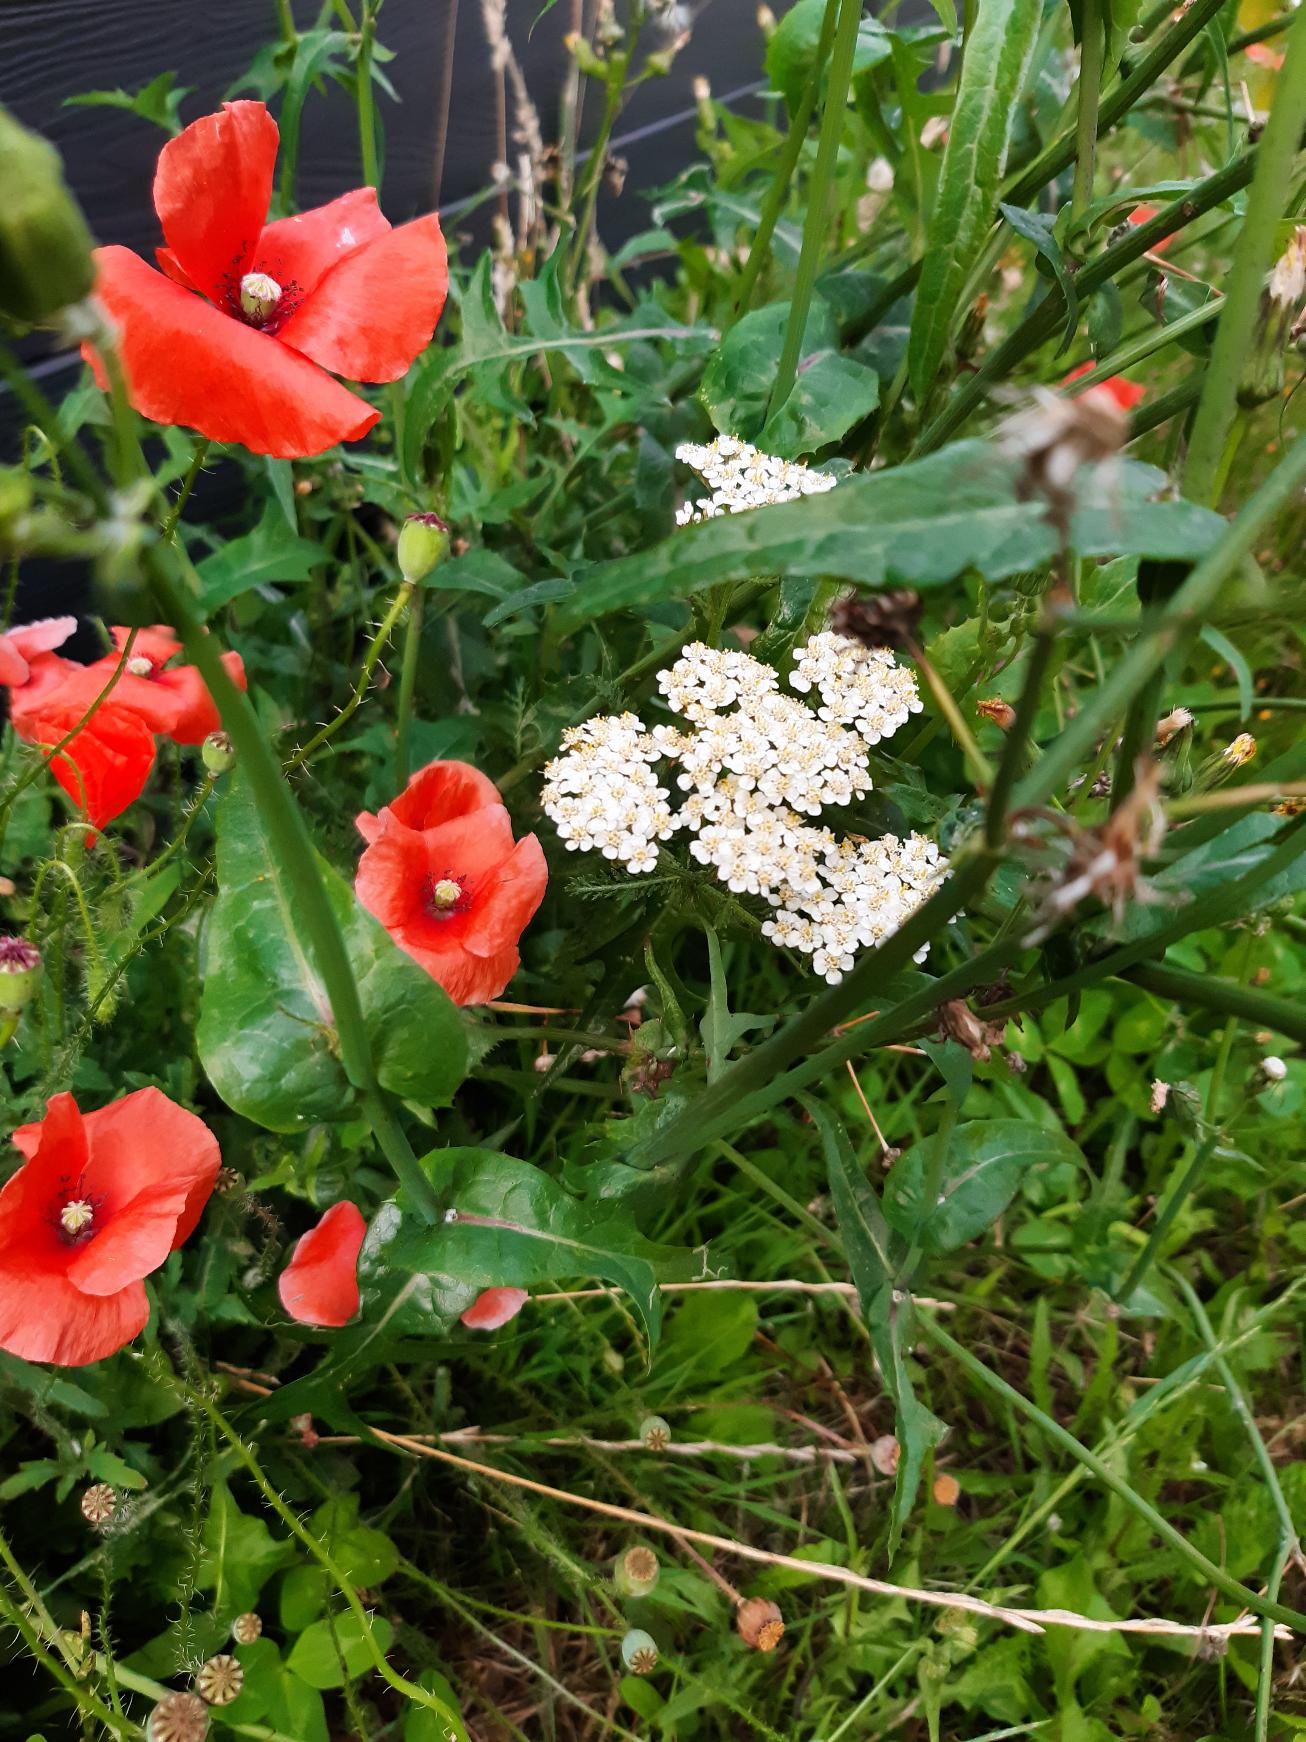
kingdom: Plantae
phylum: Tracheophyta
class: Magnoliopsida
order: Asterales
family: Asteraceae
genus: Achillea
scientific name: Achillea millefolium
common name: Almindelig røllike
